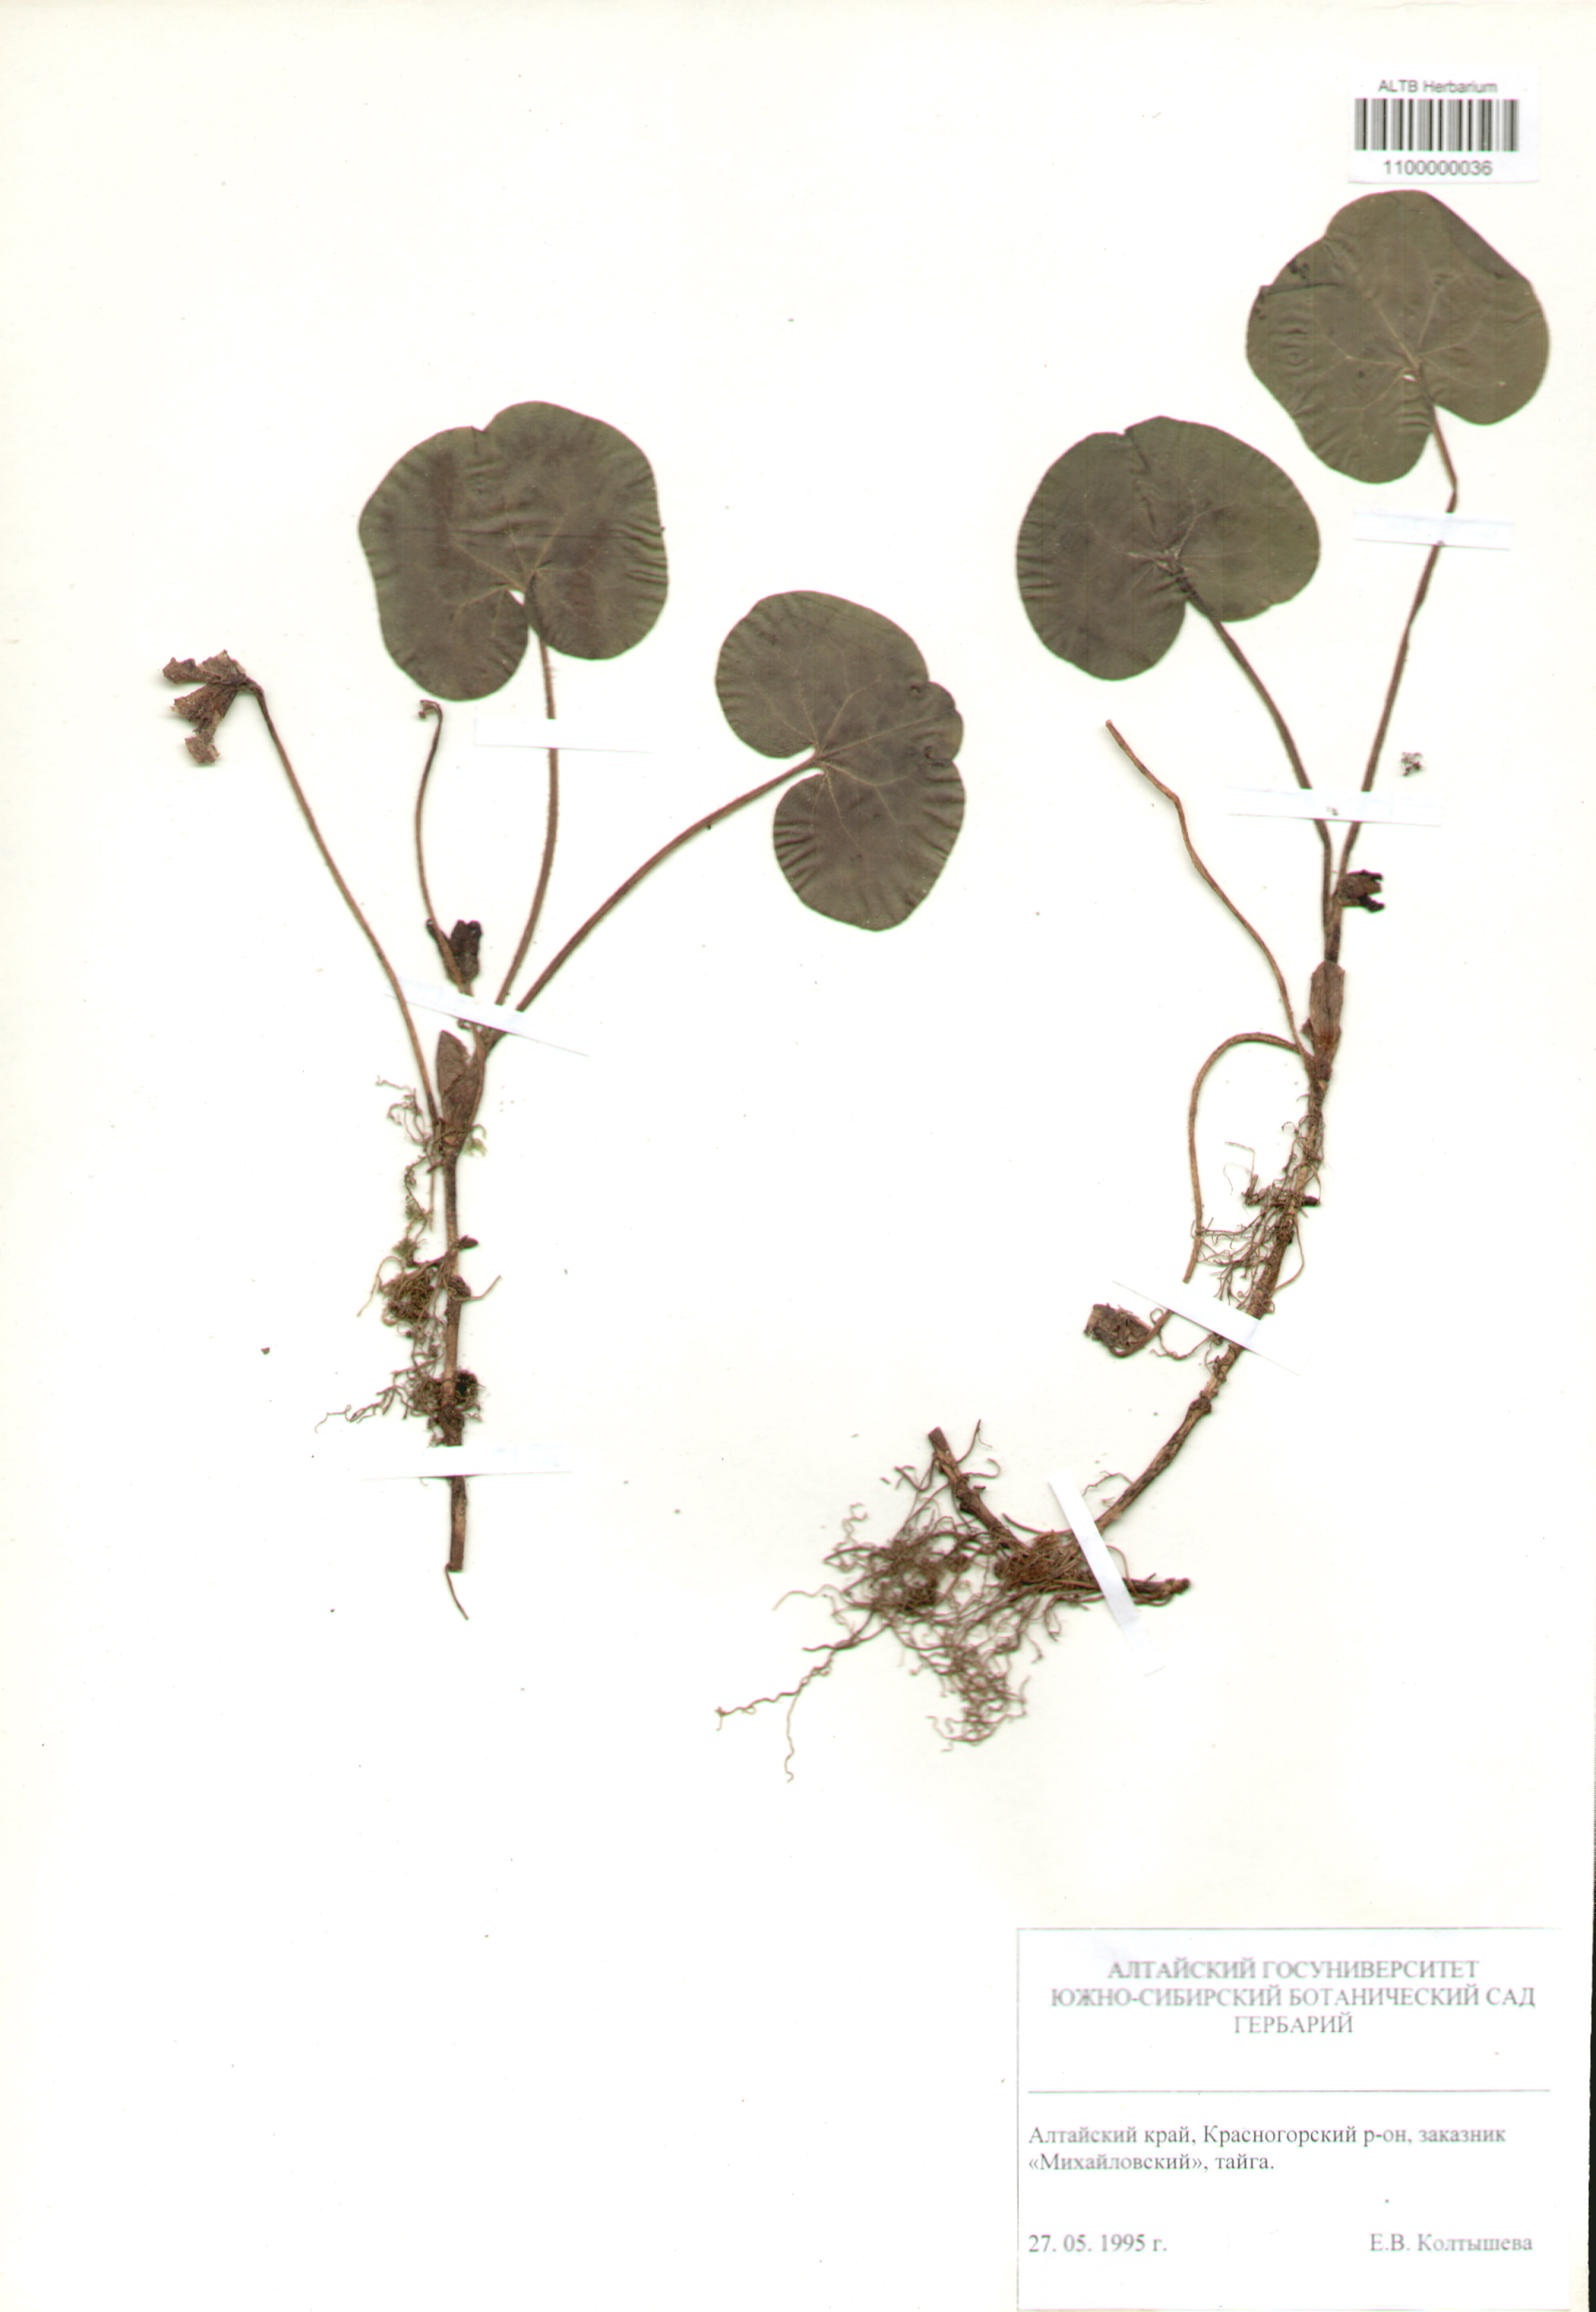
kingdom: Plantae
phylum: Tracheophyta
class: Magnoliopsida
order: Piperales
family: Aristolochiaceae
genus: Asarum
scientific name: Asarum europaeum
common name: Asarabacca
